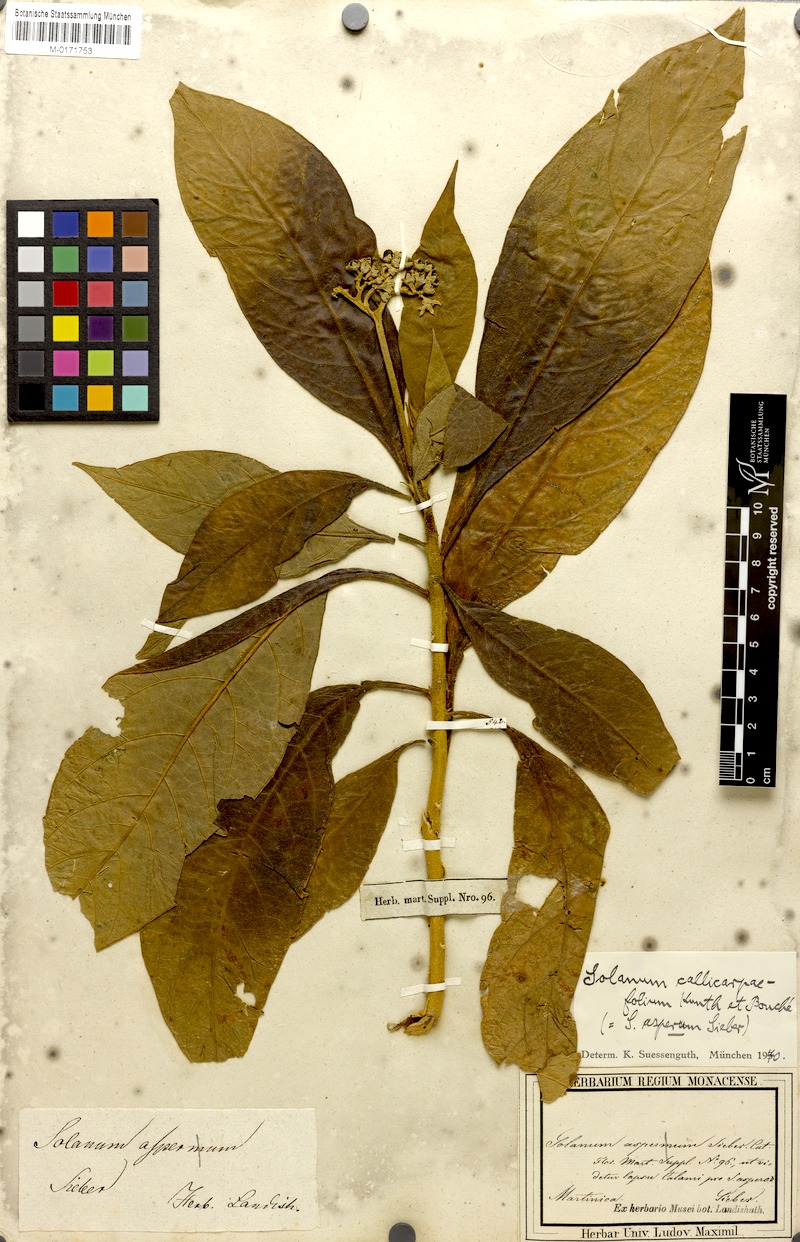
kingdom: Plantae
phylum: Tracheophyta
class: Magnoliopsida
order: Solanales
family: Solanaceae
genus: Solanum
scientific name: Solanum rugosum
